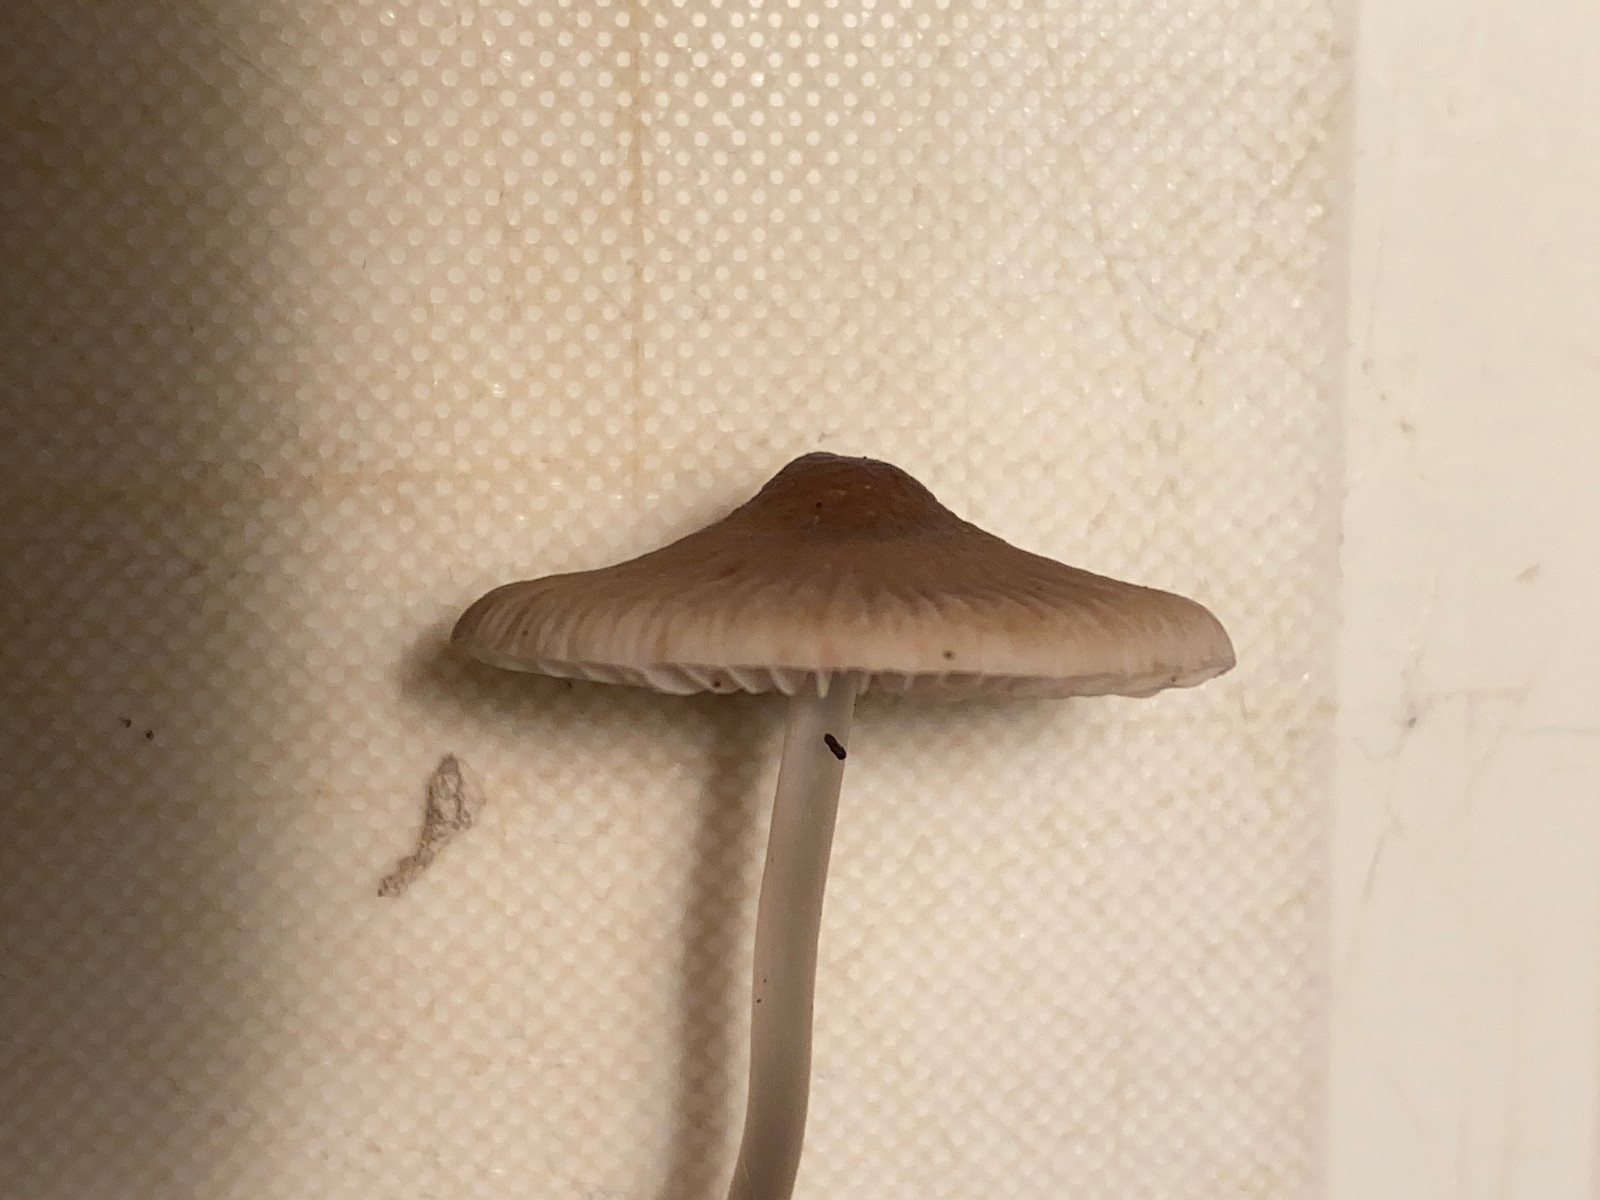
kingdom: Fungi
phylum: Basidiomycota
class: Agaricomycetes
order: Agaricales
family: Mycenaceae
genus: Mycena
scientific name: Mycena polygramma
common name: mangestribet huesvamp
